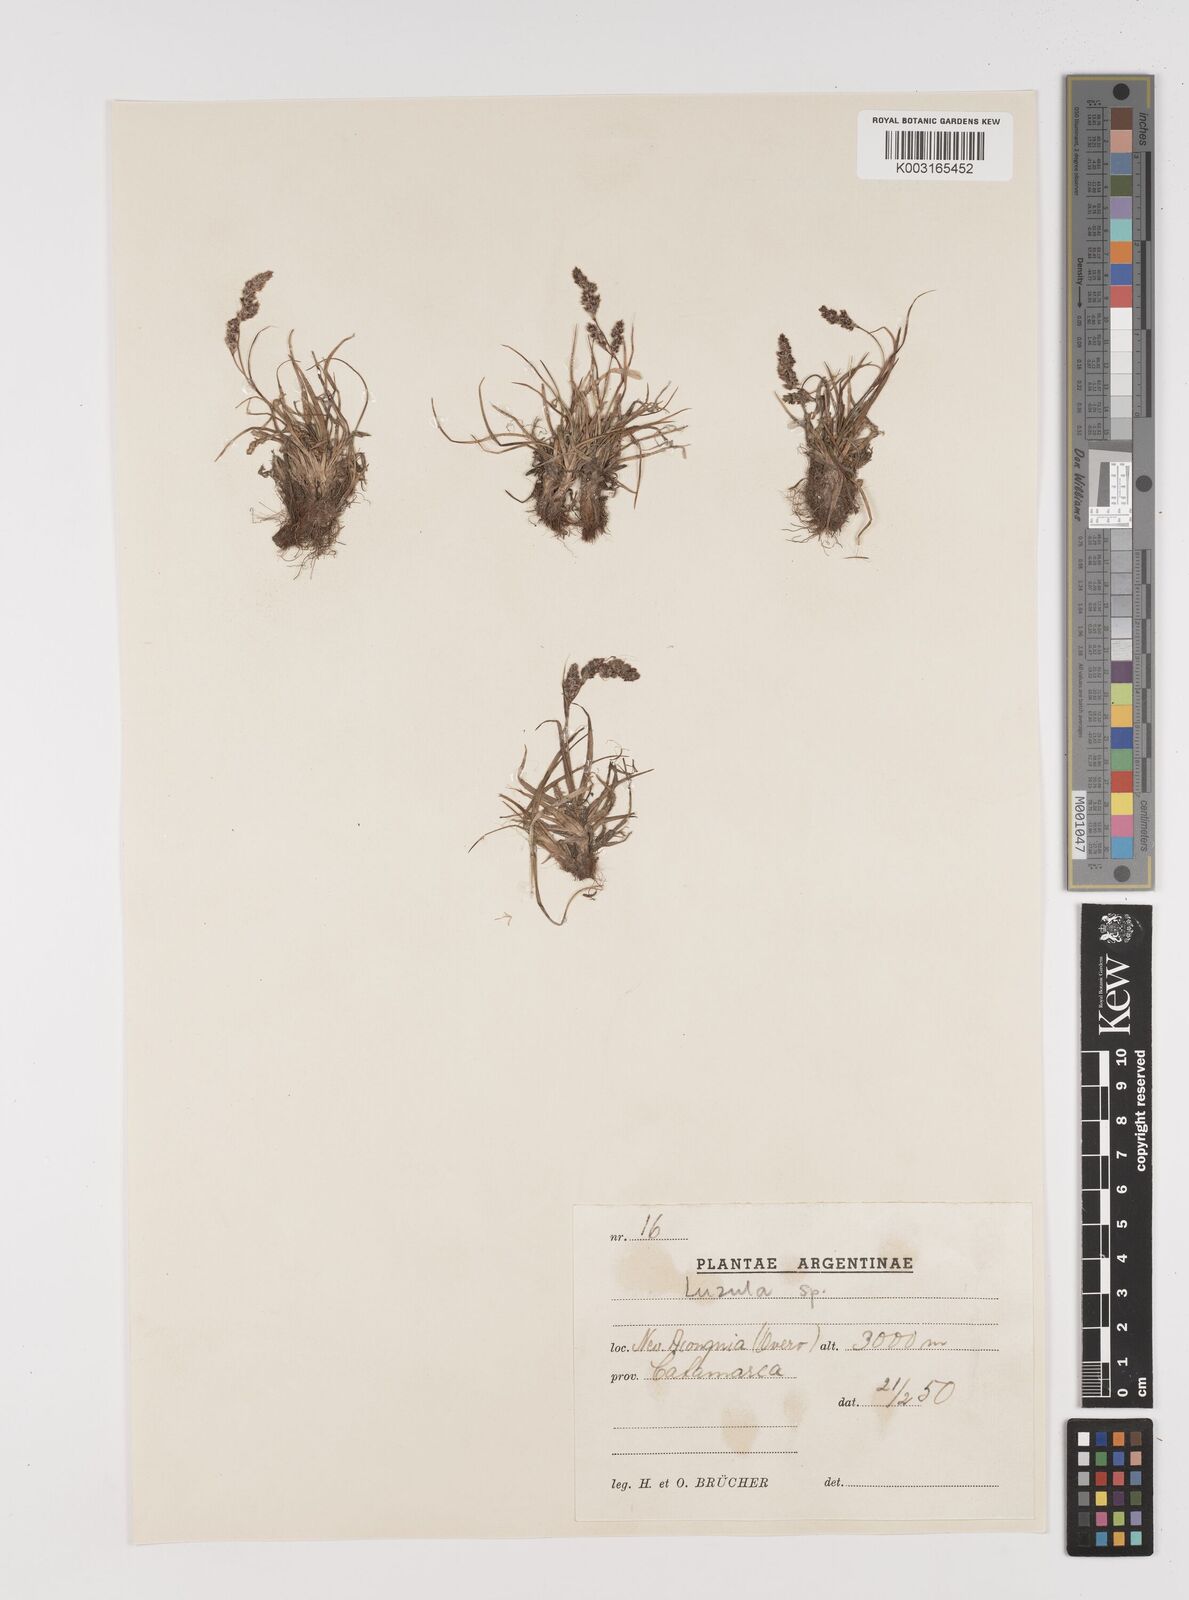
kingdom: Plantae
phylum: Tracheophyta
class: Liliopsida
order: Poales
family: Juncaceae
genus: Luzula
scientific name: Luzula
